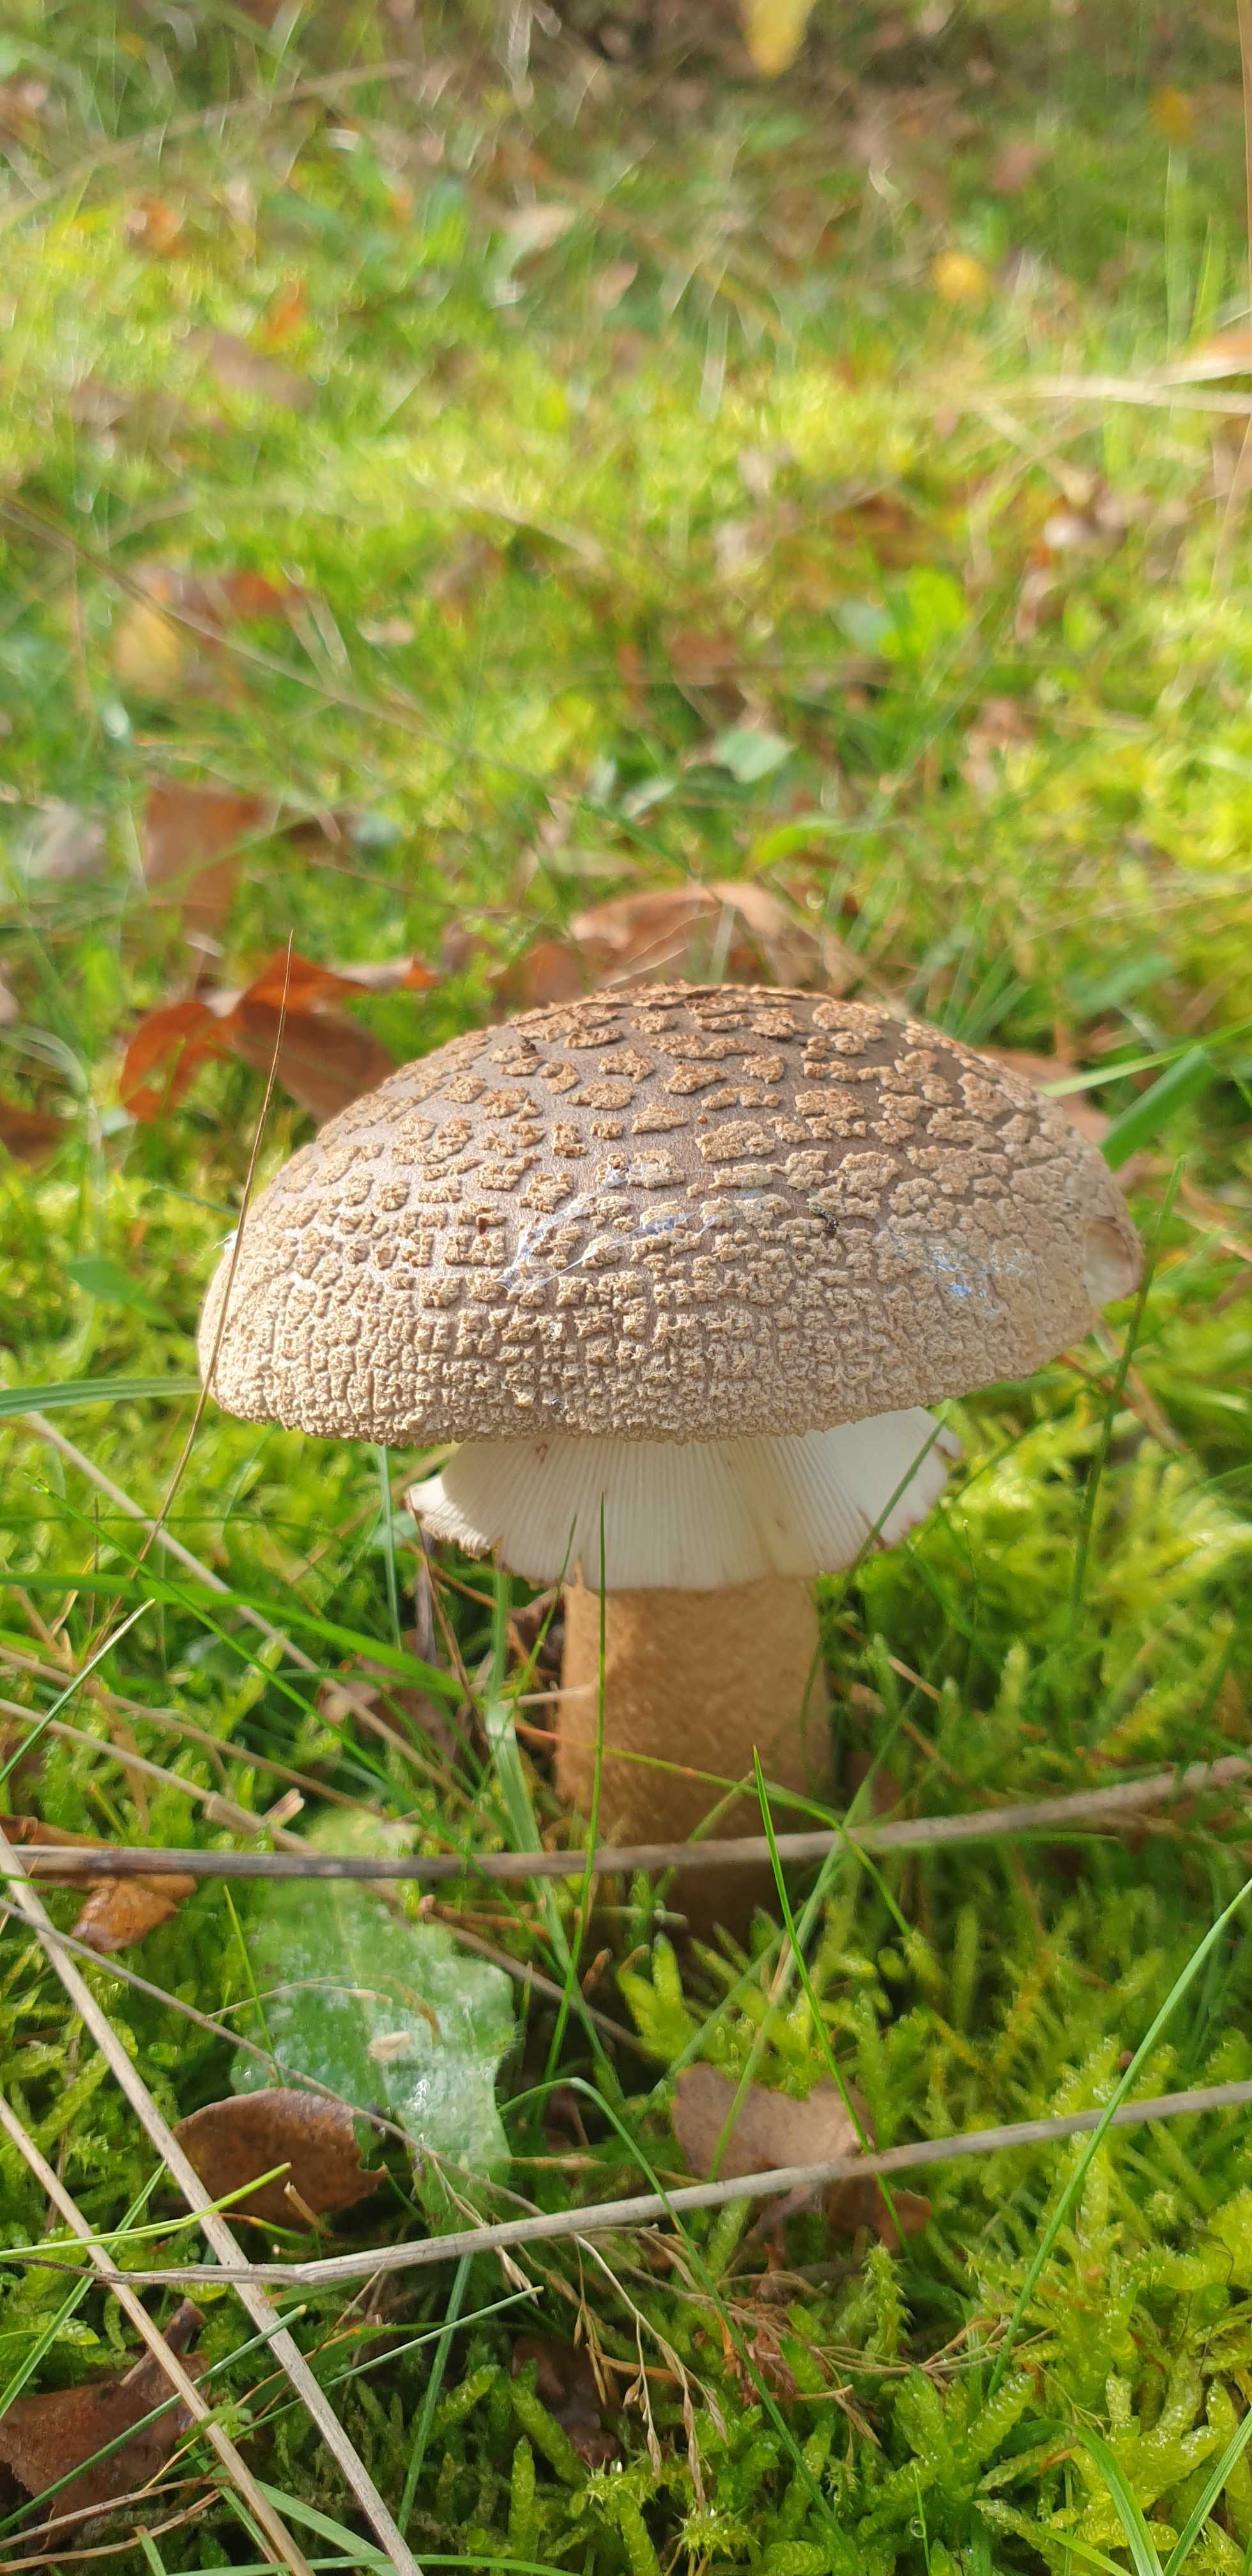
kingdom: Fungi
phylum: Basidiomycota
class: Agaricomycetes
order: Agaricales
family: Amanitaceae
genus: Amanita
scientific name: Amanita rubescens
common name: rødmende fluesvamp
